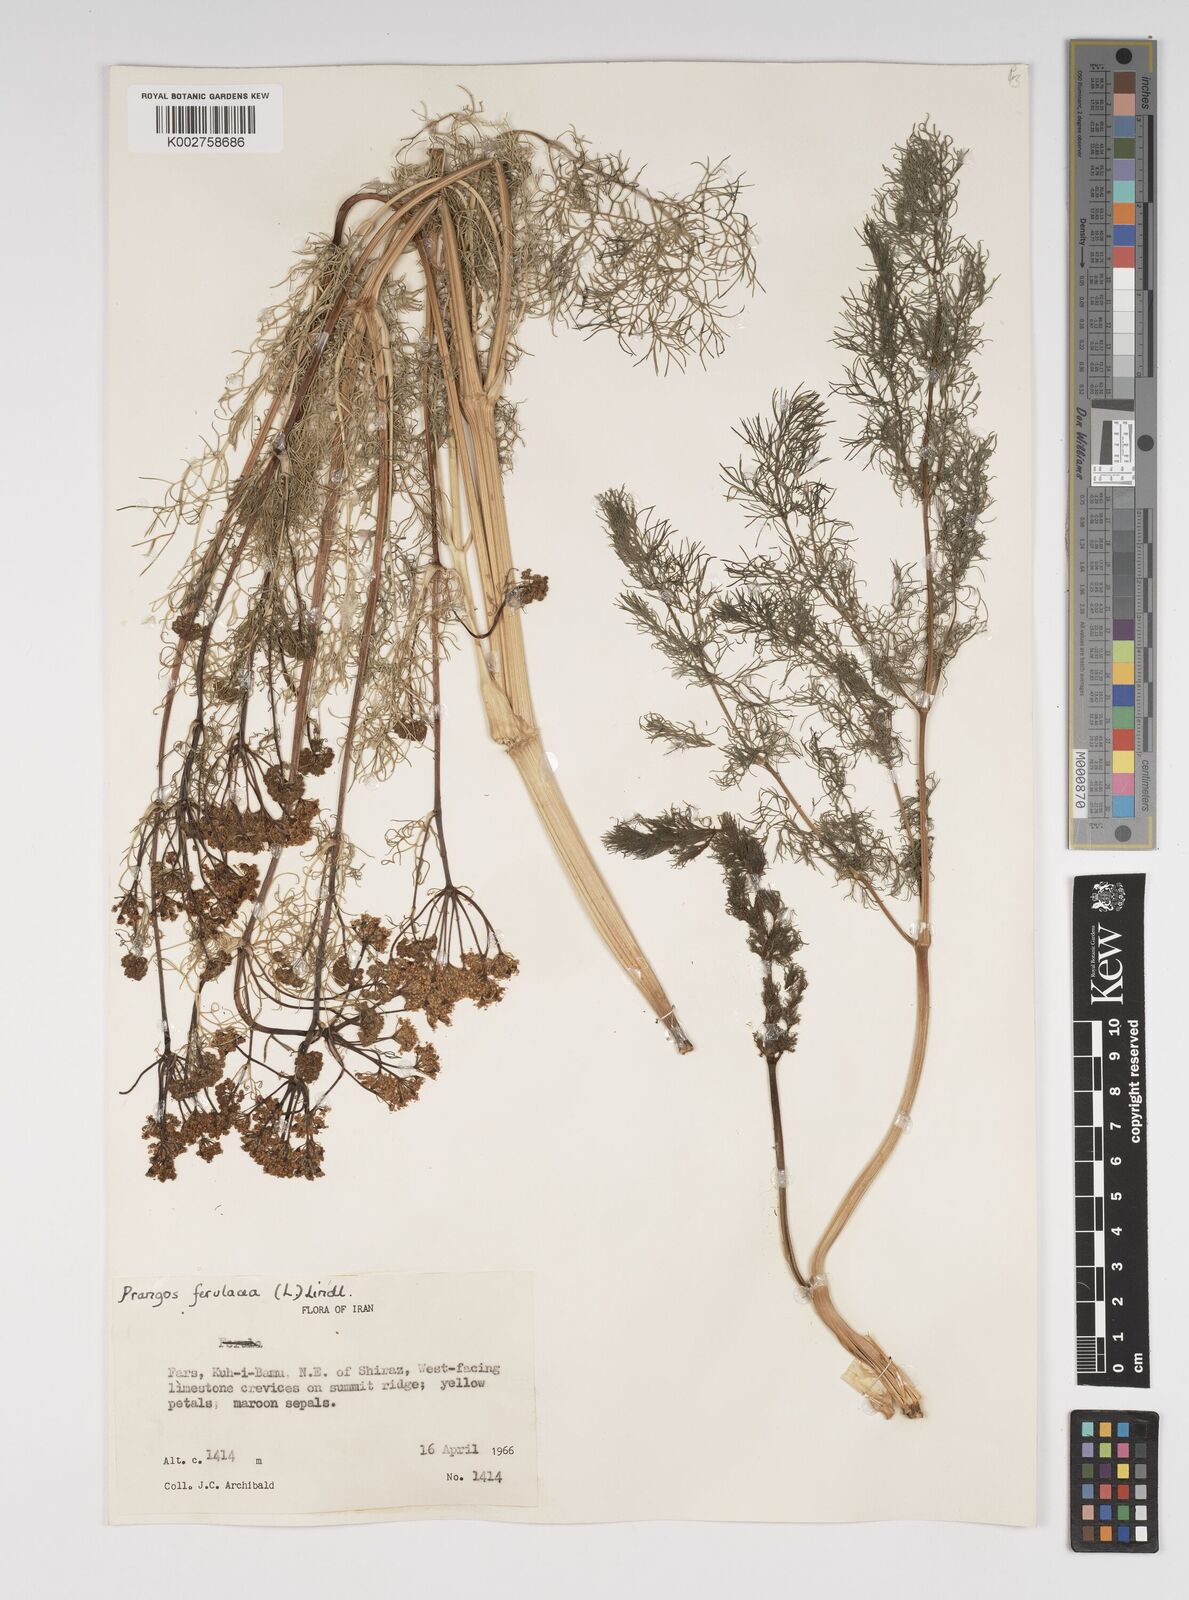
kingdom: Plantae
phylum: Tracheophyta
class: Magnoliopsida
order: Apiales
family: Apiaceae
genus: Prangos
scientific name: Prangos ferulacea
